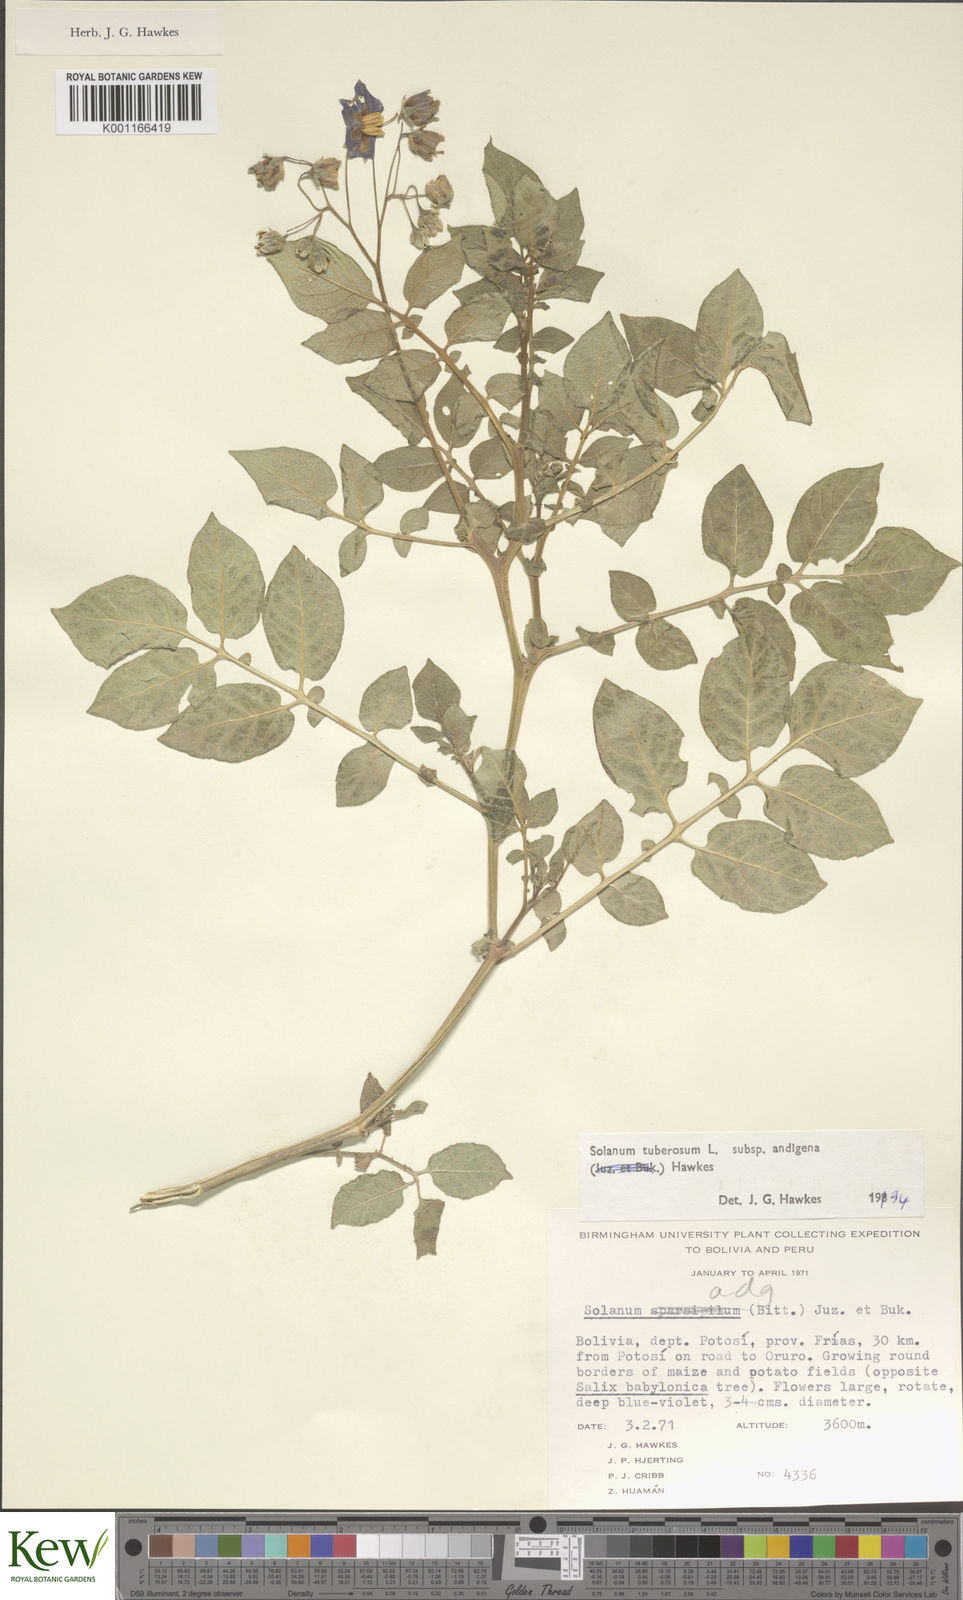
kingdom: Plantae
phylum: Tracheophyta
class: Magnoliopsida
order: Solanales
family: Solanaceae
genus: Solanum
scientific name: Solanum tuberosum
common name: Potato
